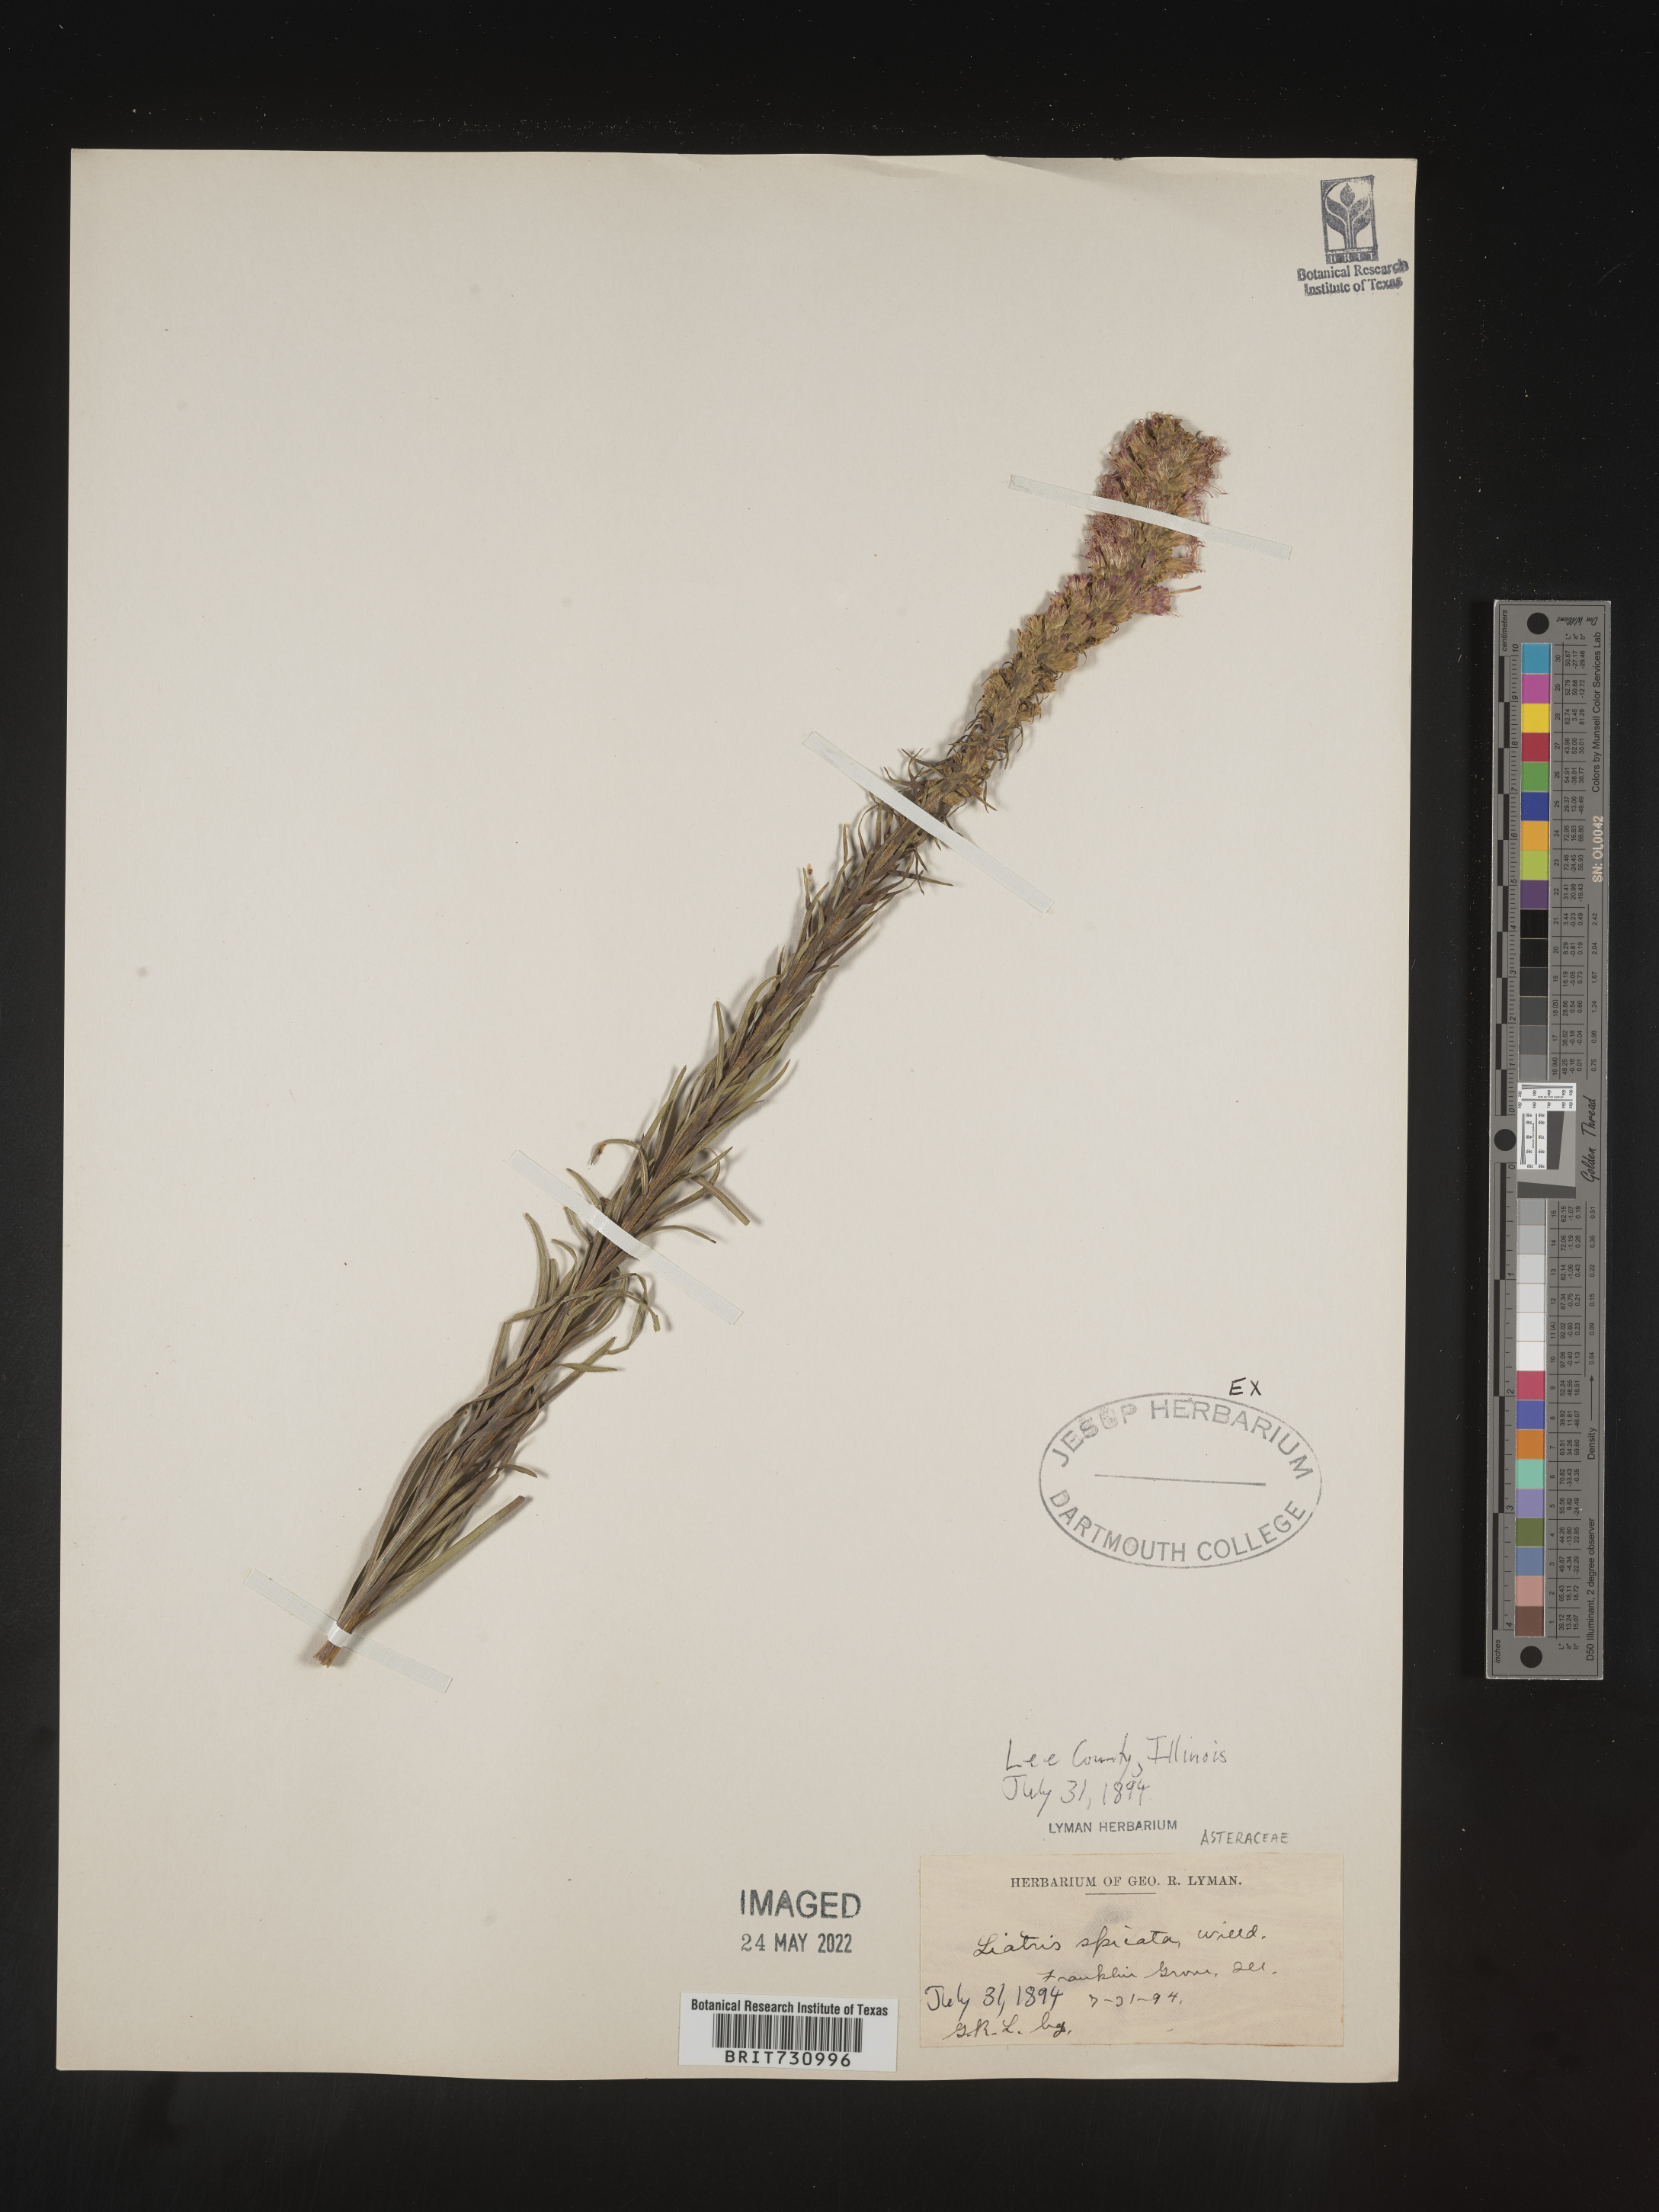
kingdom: Plantae
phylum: Tracheophyta
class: Magnoliopsida
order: Asterales
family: Asteraceae
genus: Liatris
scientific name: Liatris spicata
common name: Florist gayfeather
